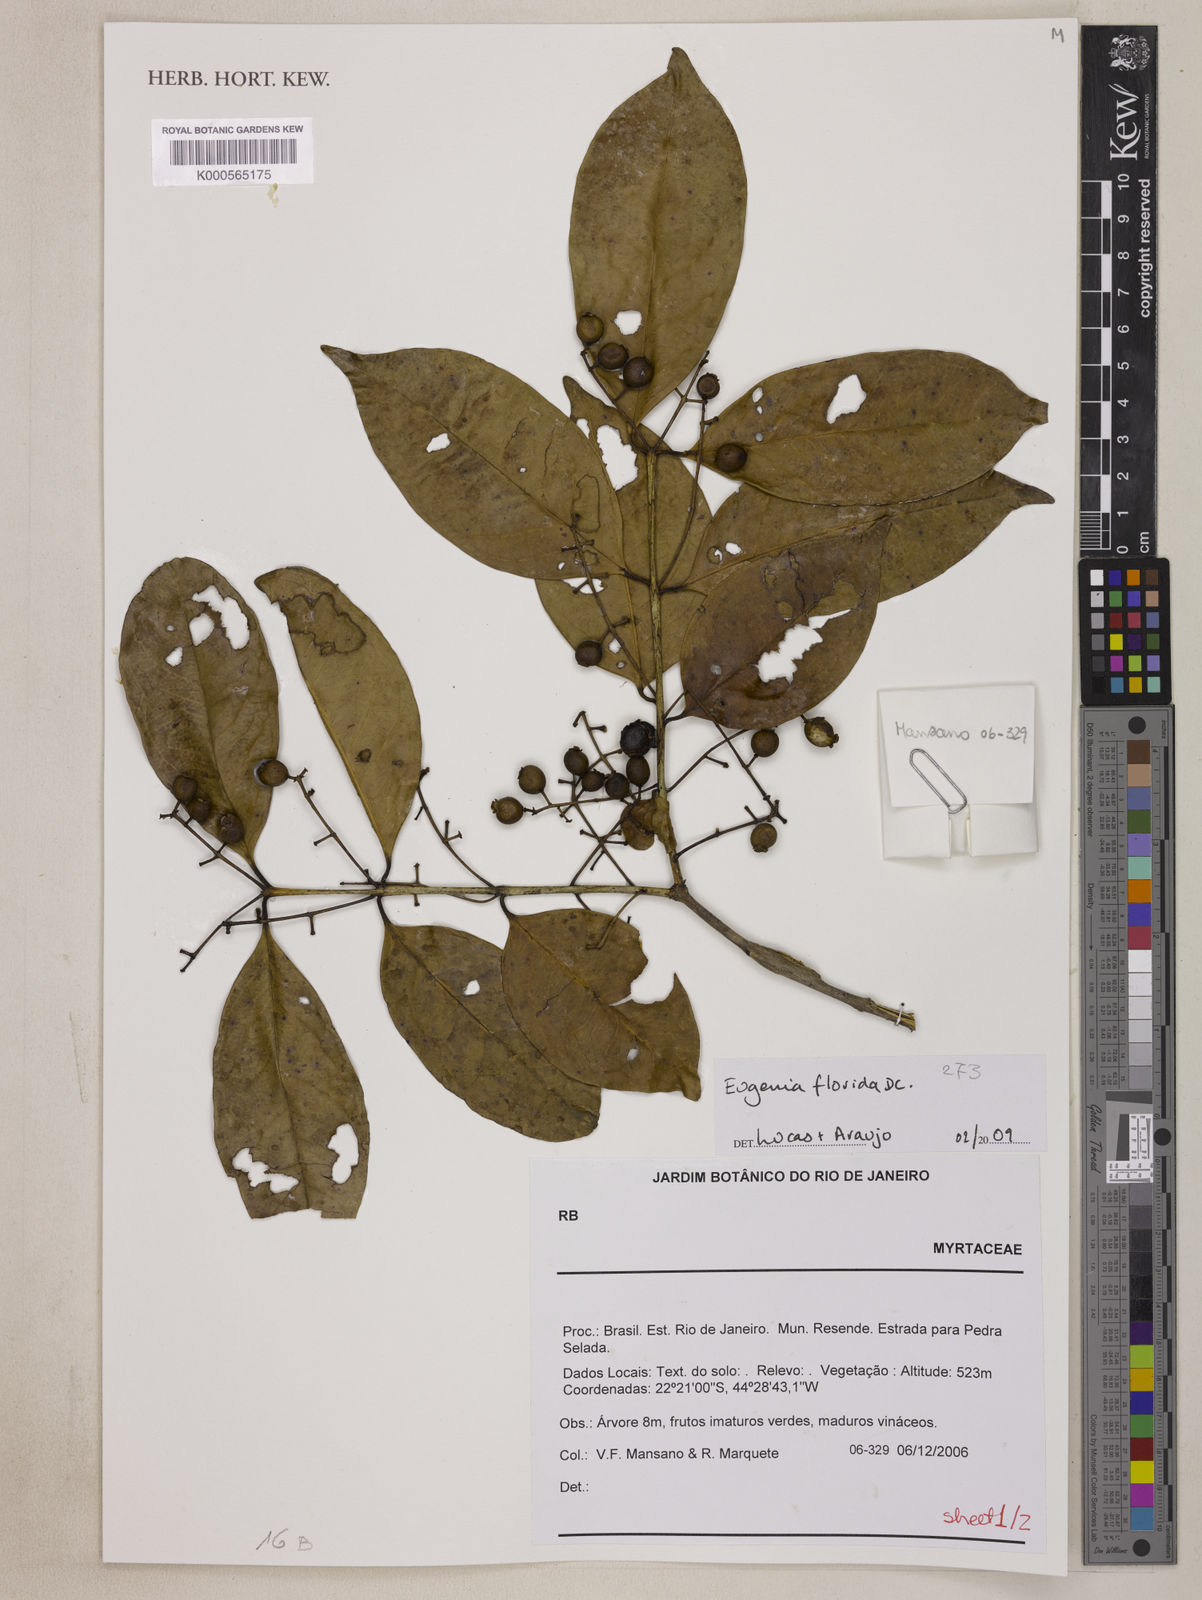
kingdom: Plantae
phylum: Tracheophyta
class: Magnoliopsida
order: Myrtales
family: Myrtaceae
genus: Eugenia
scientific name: Eugenia florida
